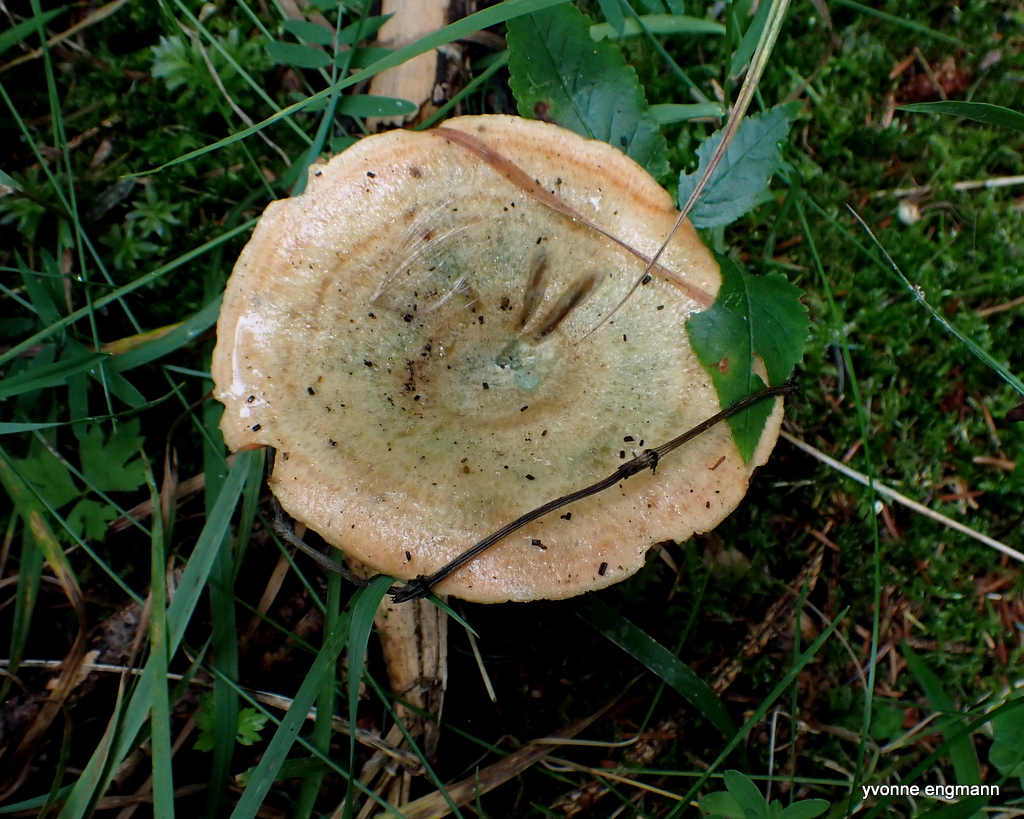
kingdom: Fungi
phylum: Basidiomycota
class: Agaricomycetes
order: Russulales
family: Russulaceae
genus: Lactarius
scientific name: Lactarius deterrimus
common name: gran-mælkehat
